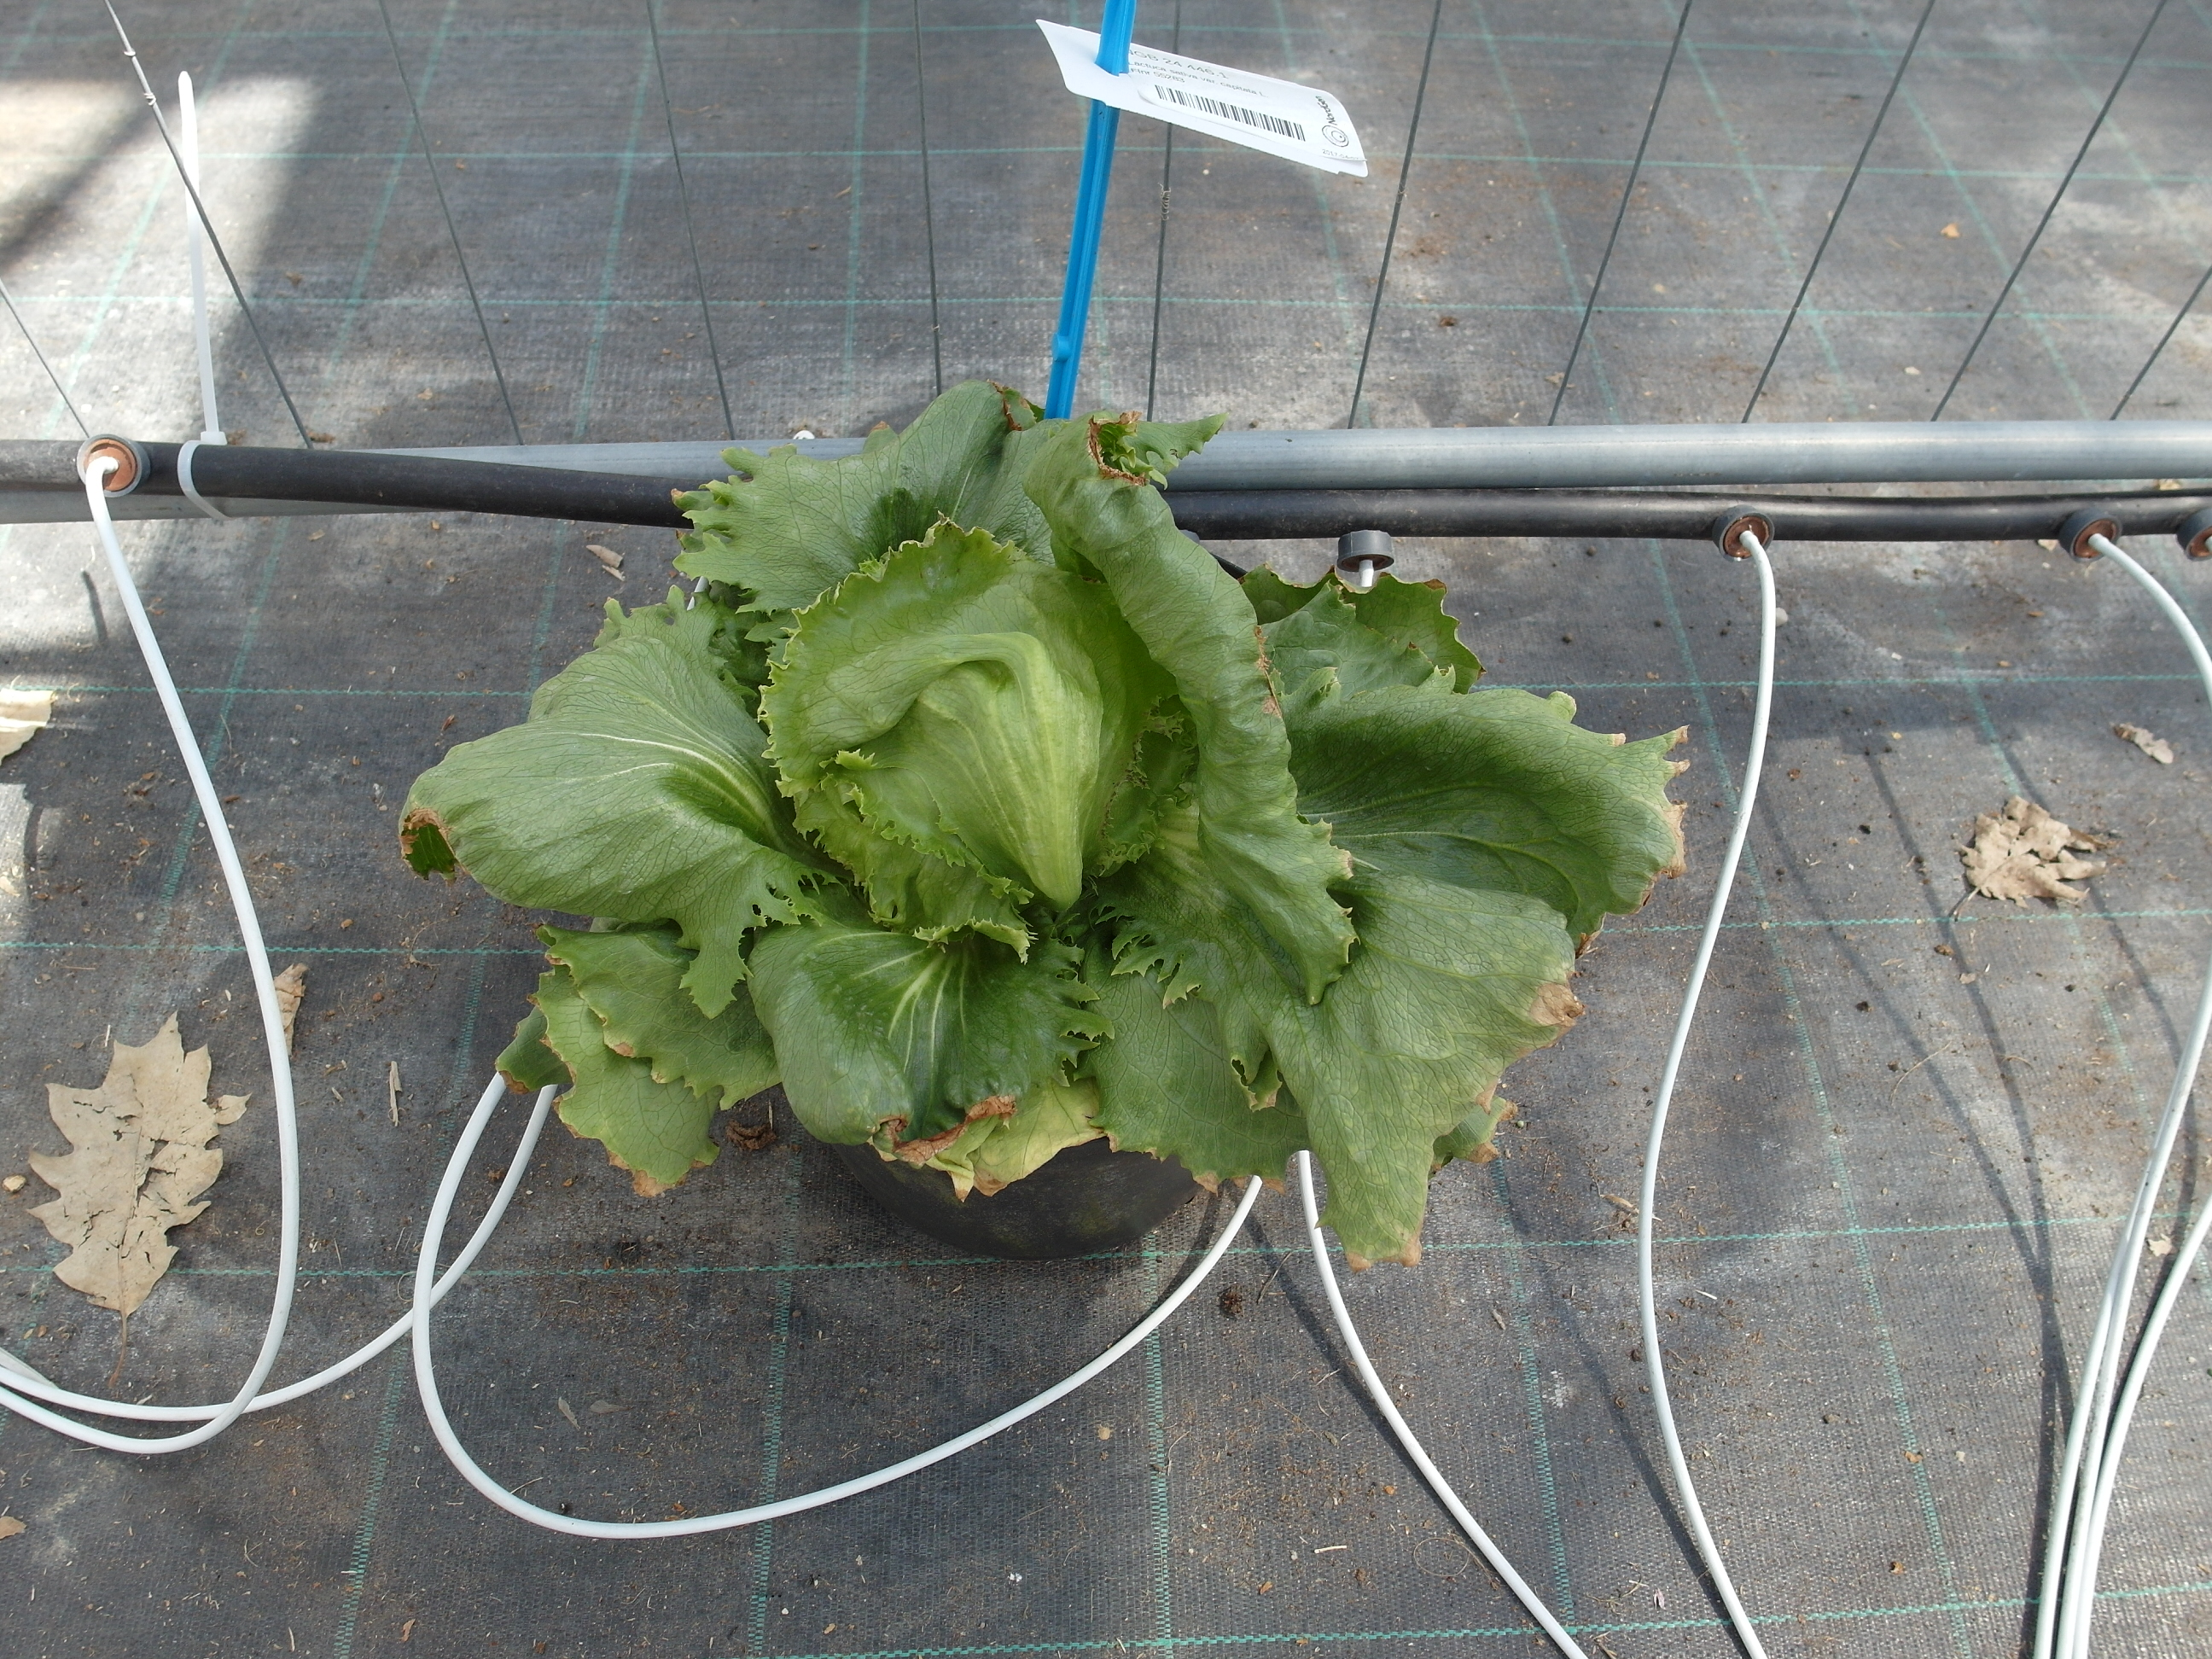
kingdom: Plantae
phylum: Tracheophyta
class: Magnoliopsida
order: Asterales
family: Asteraceae
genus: Lactuca
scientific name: Lactuca sativa
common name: Garden lettuce
